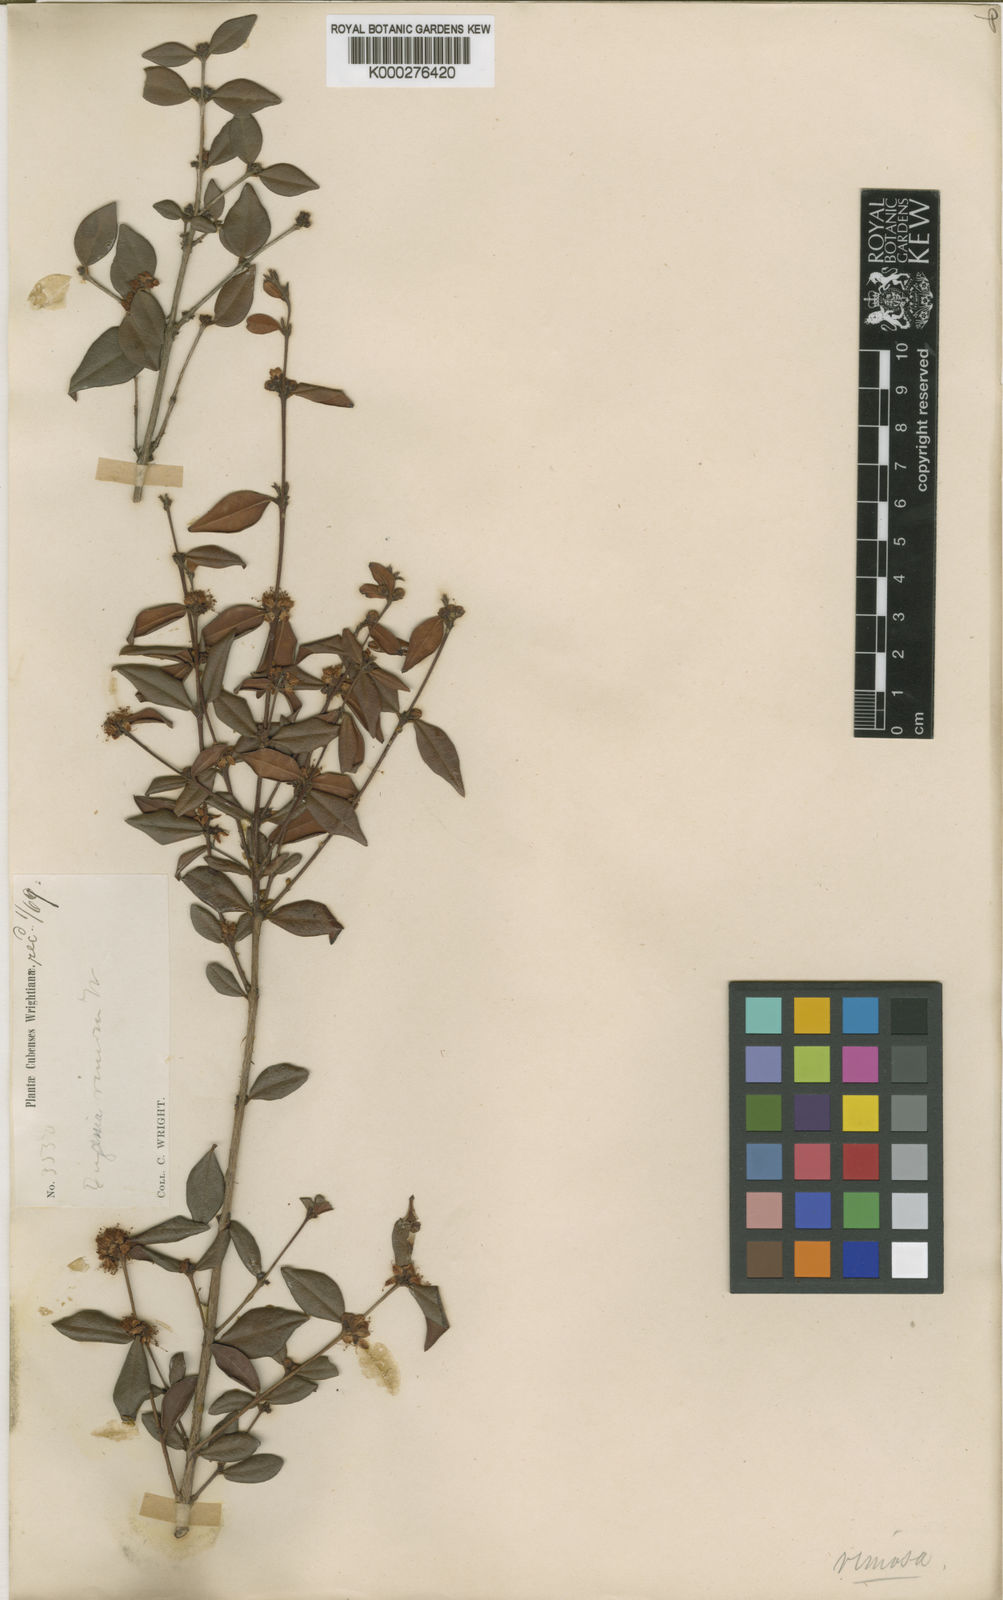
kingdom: Plantae
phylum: Tracheophyta
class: Magnoliopsida
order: Myrtales
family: Myrtaceae
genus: Eugenia
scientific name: Eugenia rimosa
